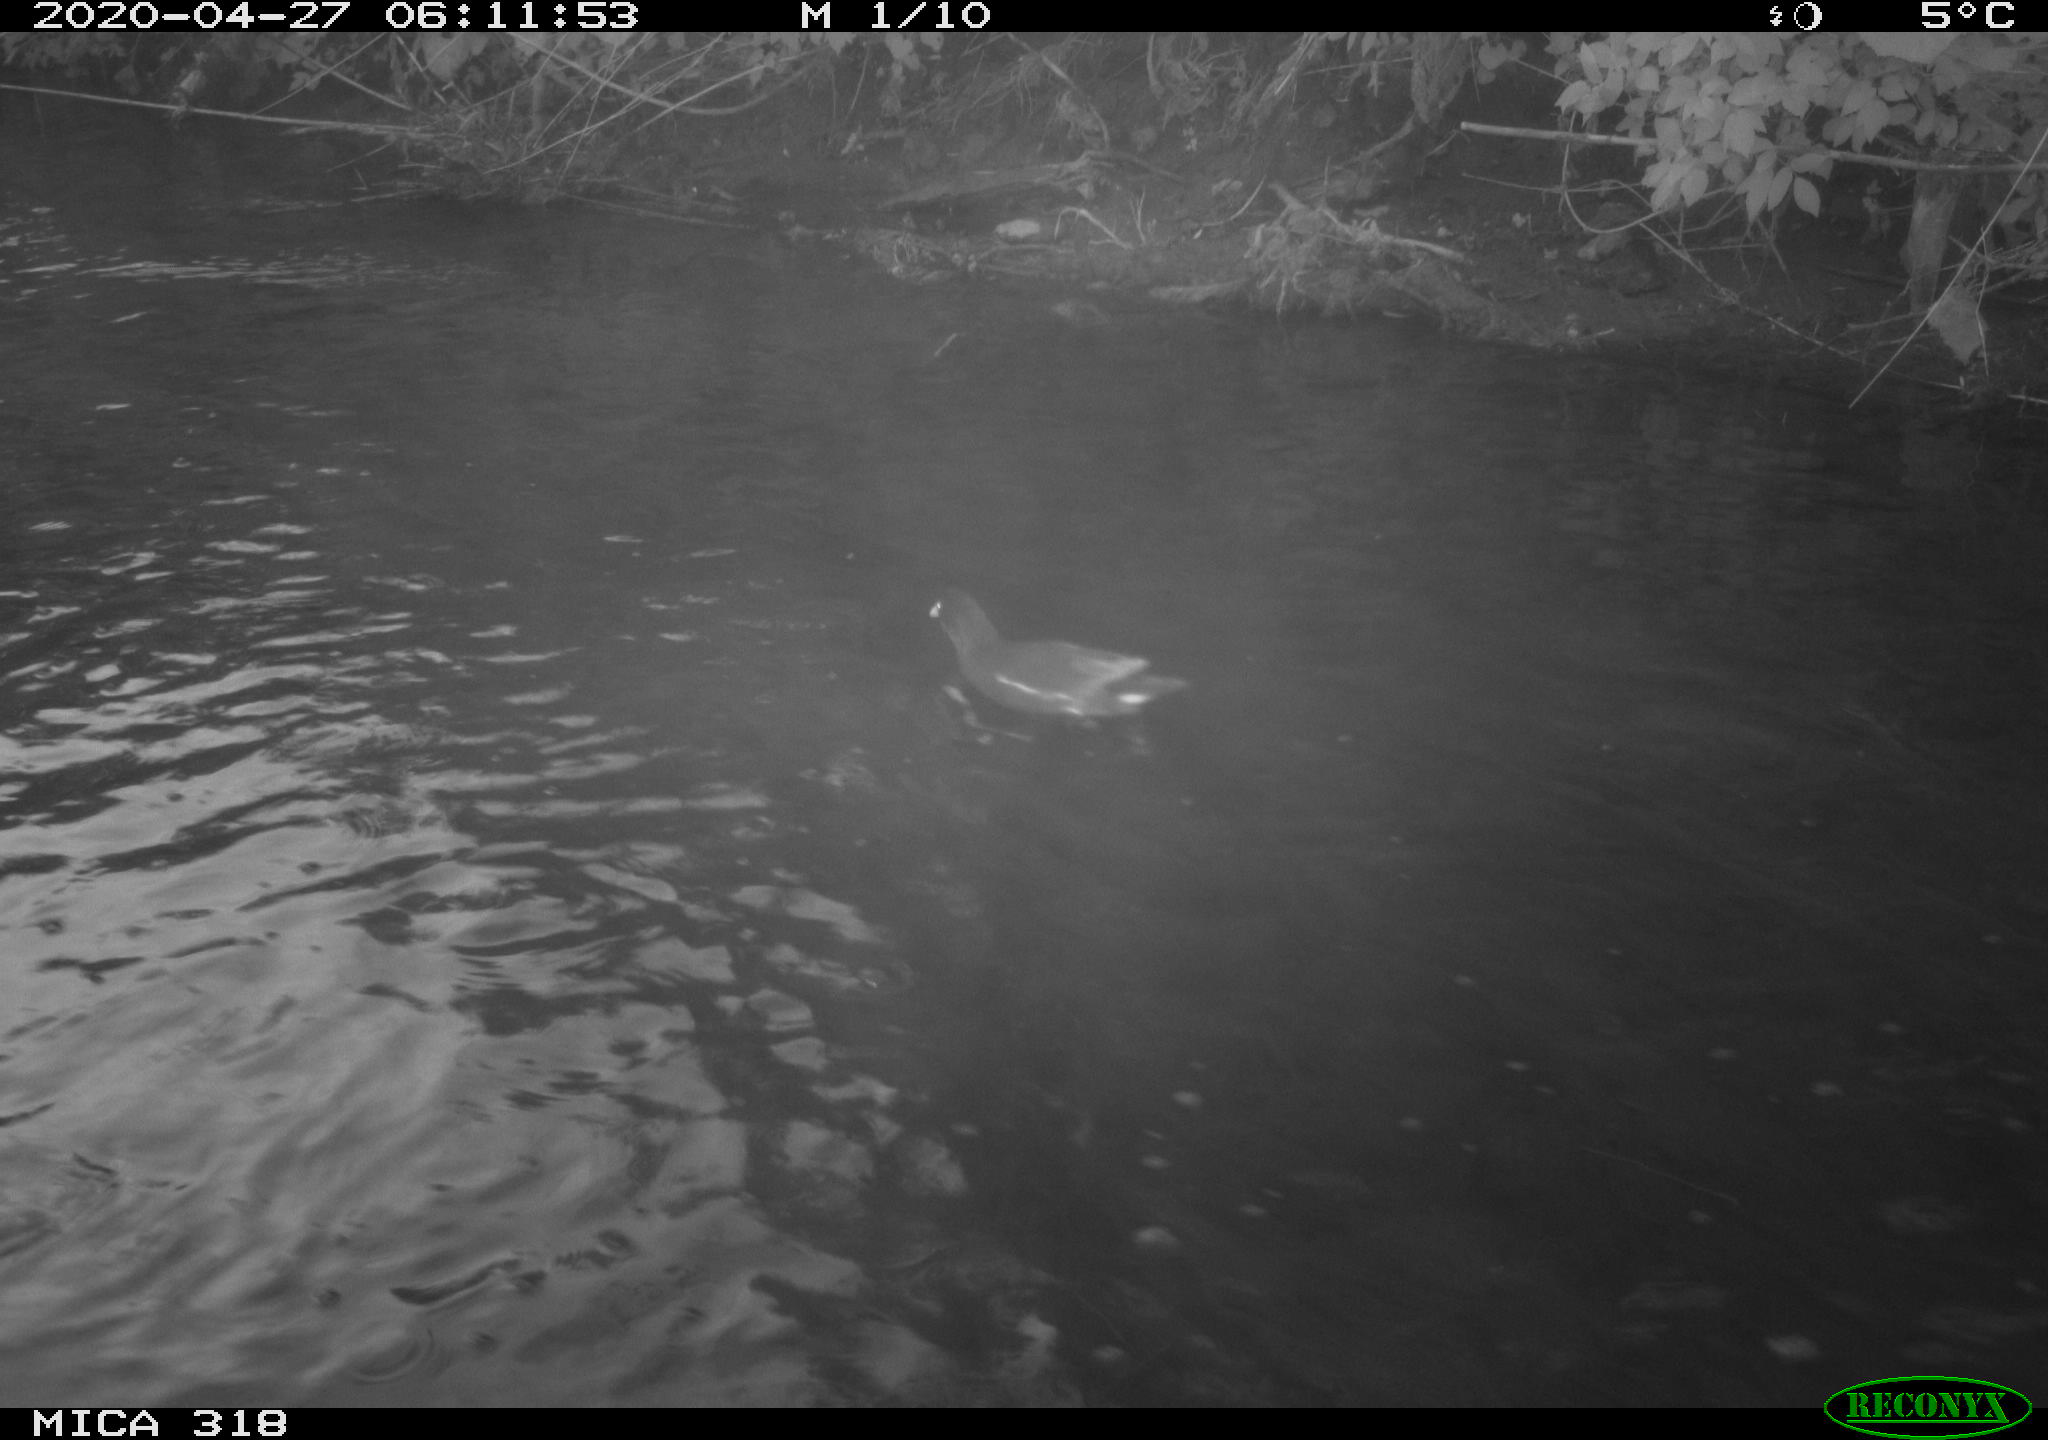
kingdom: Animalia
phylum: Chordata
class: Aves
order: Gruiformes
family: Rallidae
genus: Gallinula
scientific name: Gallinula chloropus
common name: Common moorhen
